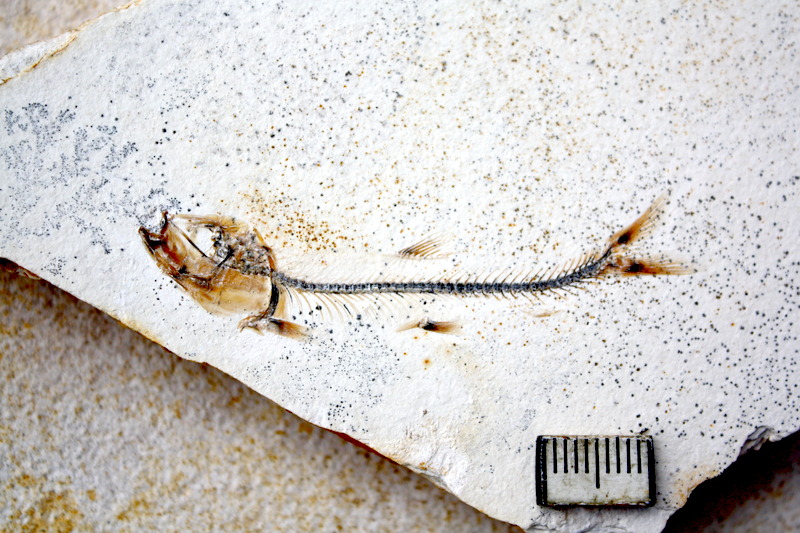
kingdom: Animalia
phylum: Chordata
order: Salmoniformes
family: Orthogonikleithridae
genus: Orthogonikleithrus
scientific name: Orthogonikleithrus hoelli
